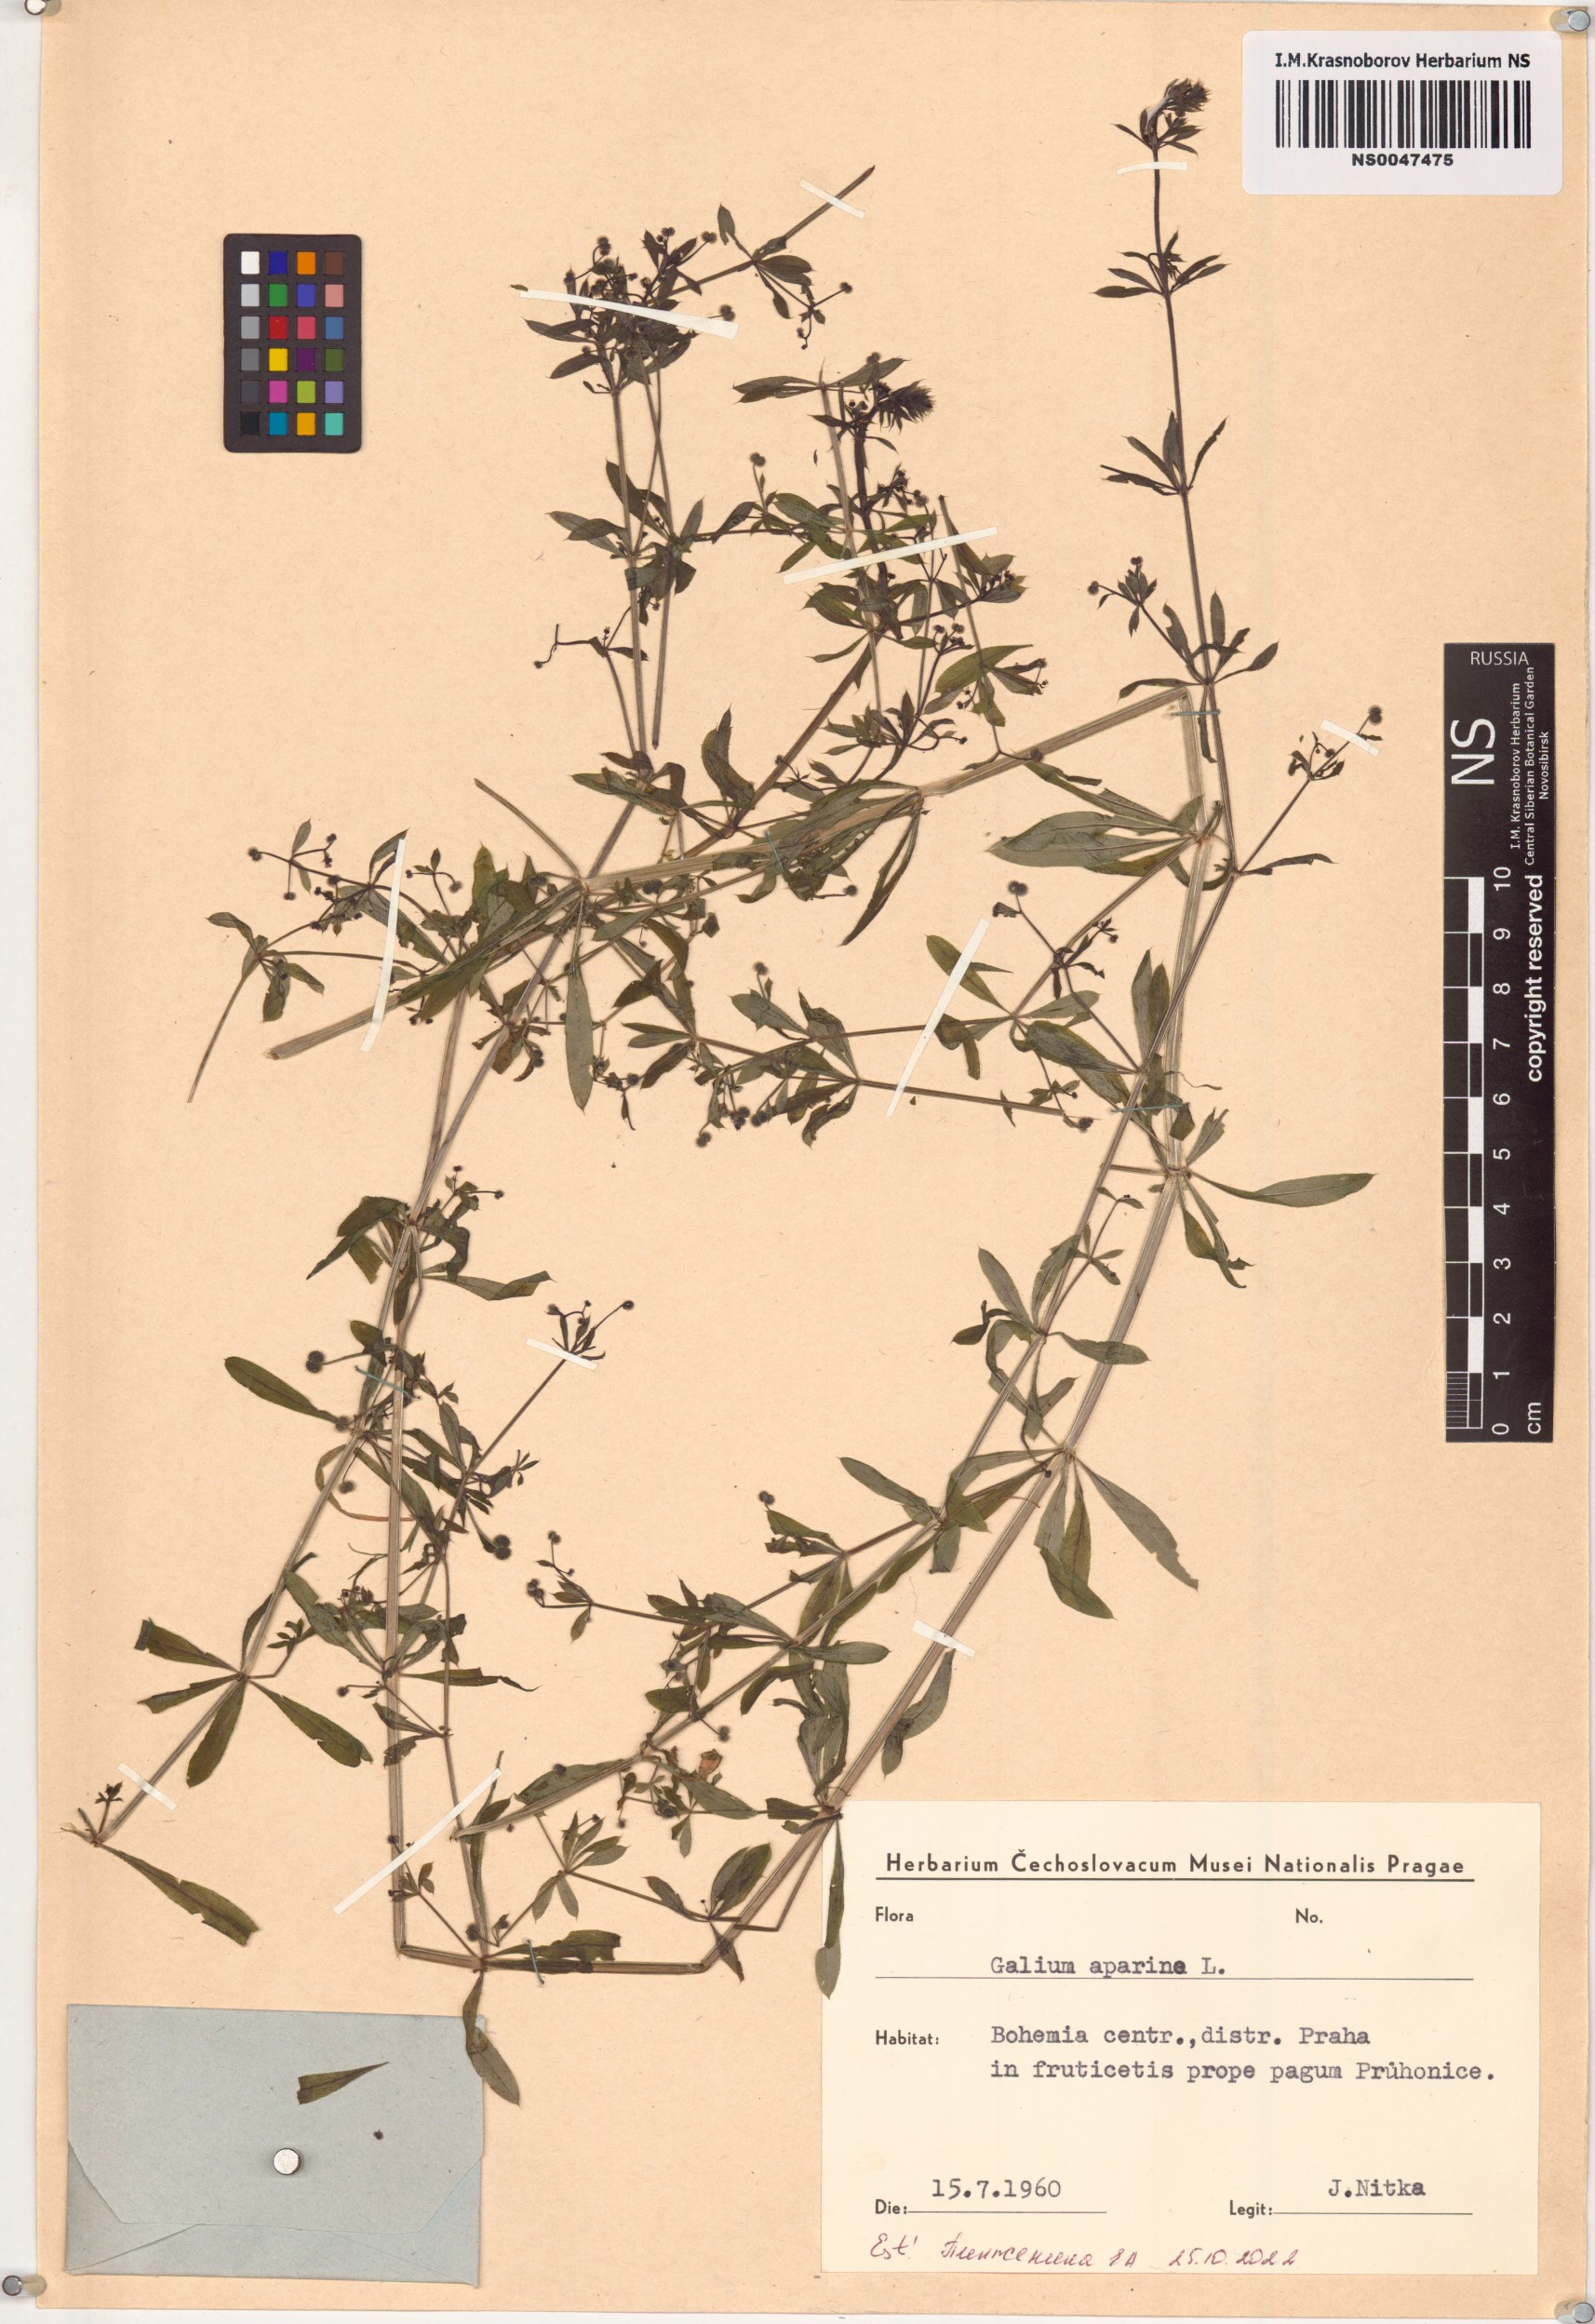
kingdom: Plantae
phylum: Tracheophyta
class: Magnoliopsida
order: Gentianales
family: Rubiaceae
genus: Galium
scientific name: Galium aparine
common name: Cleavers
